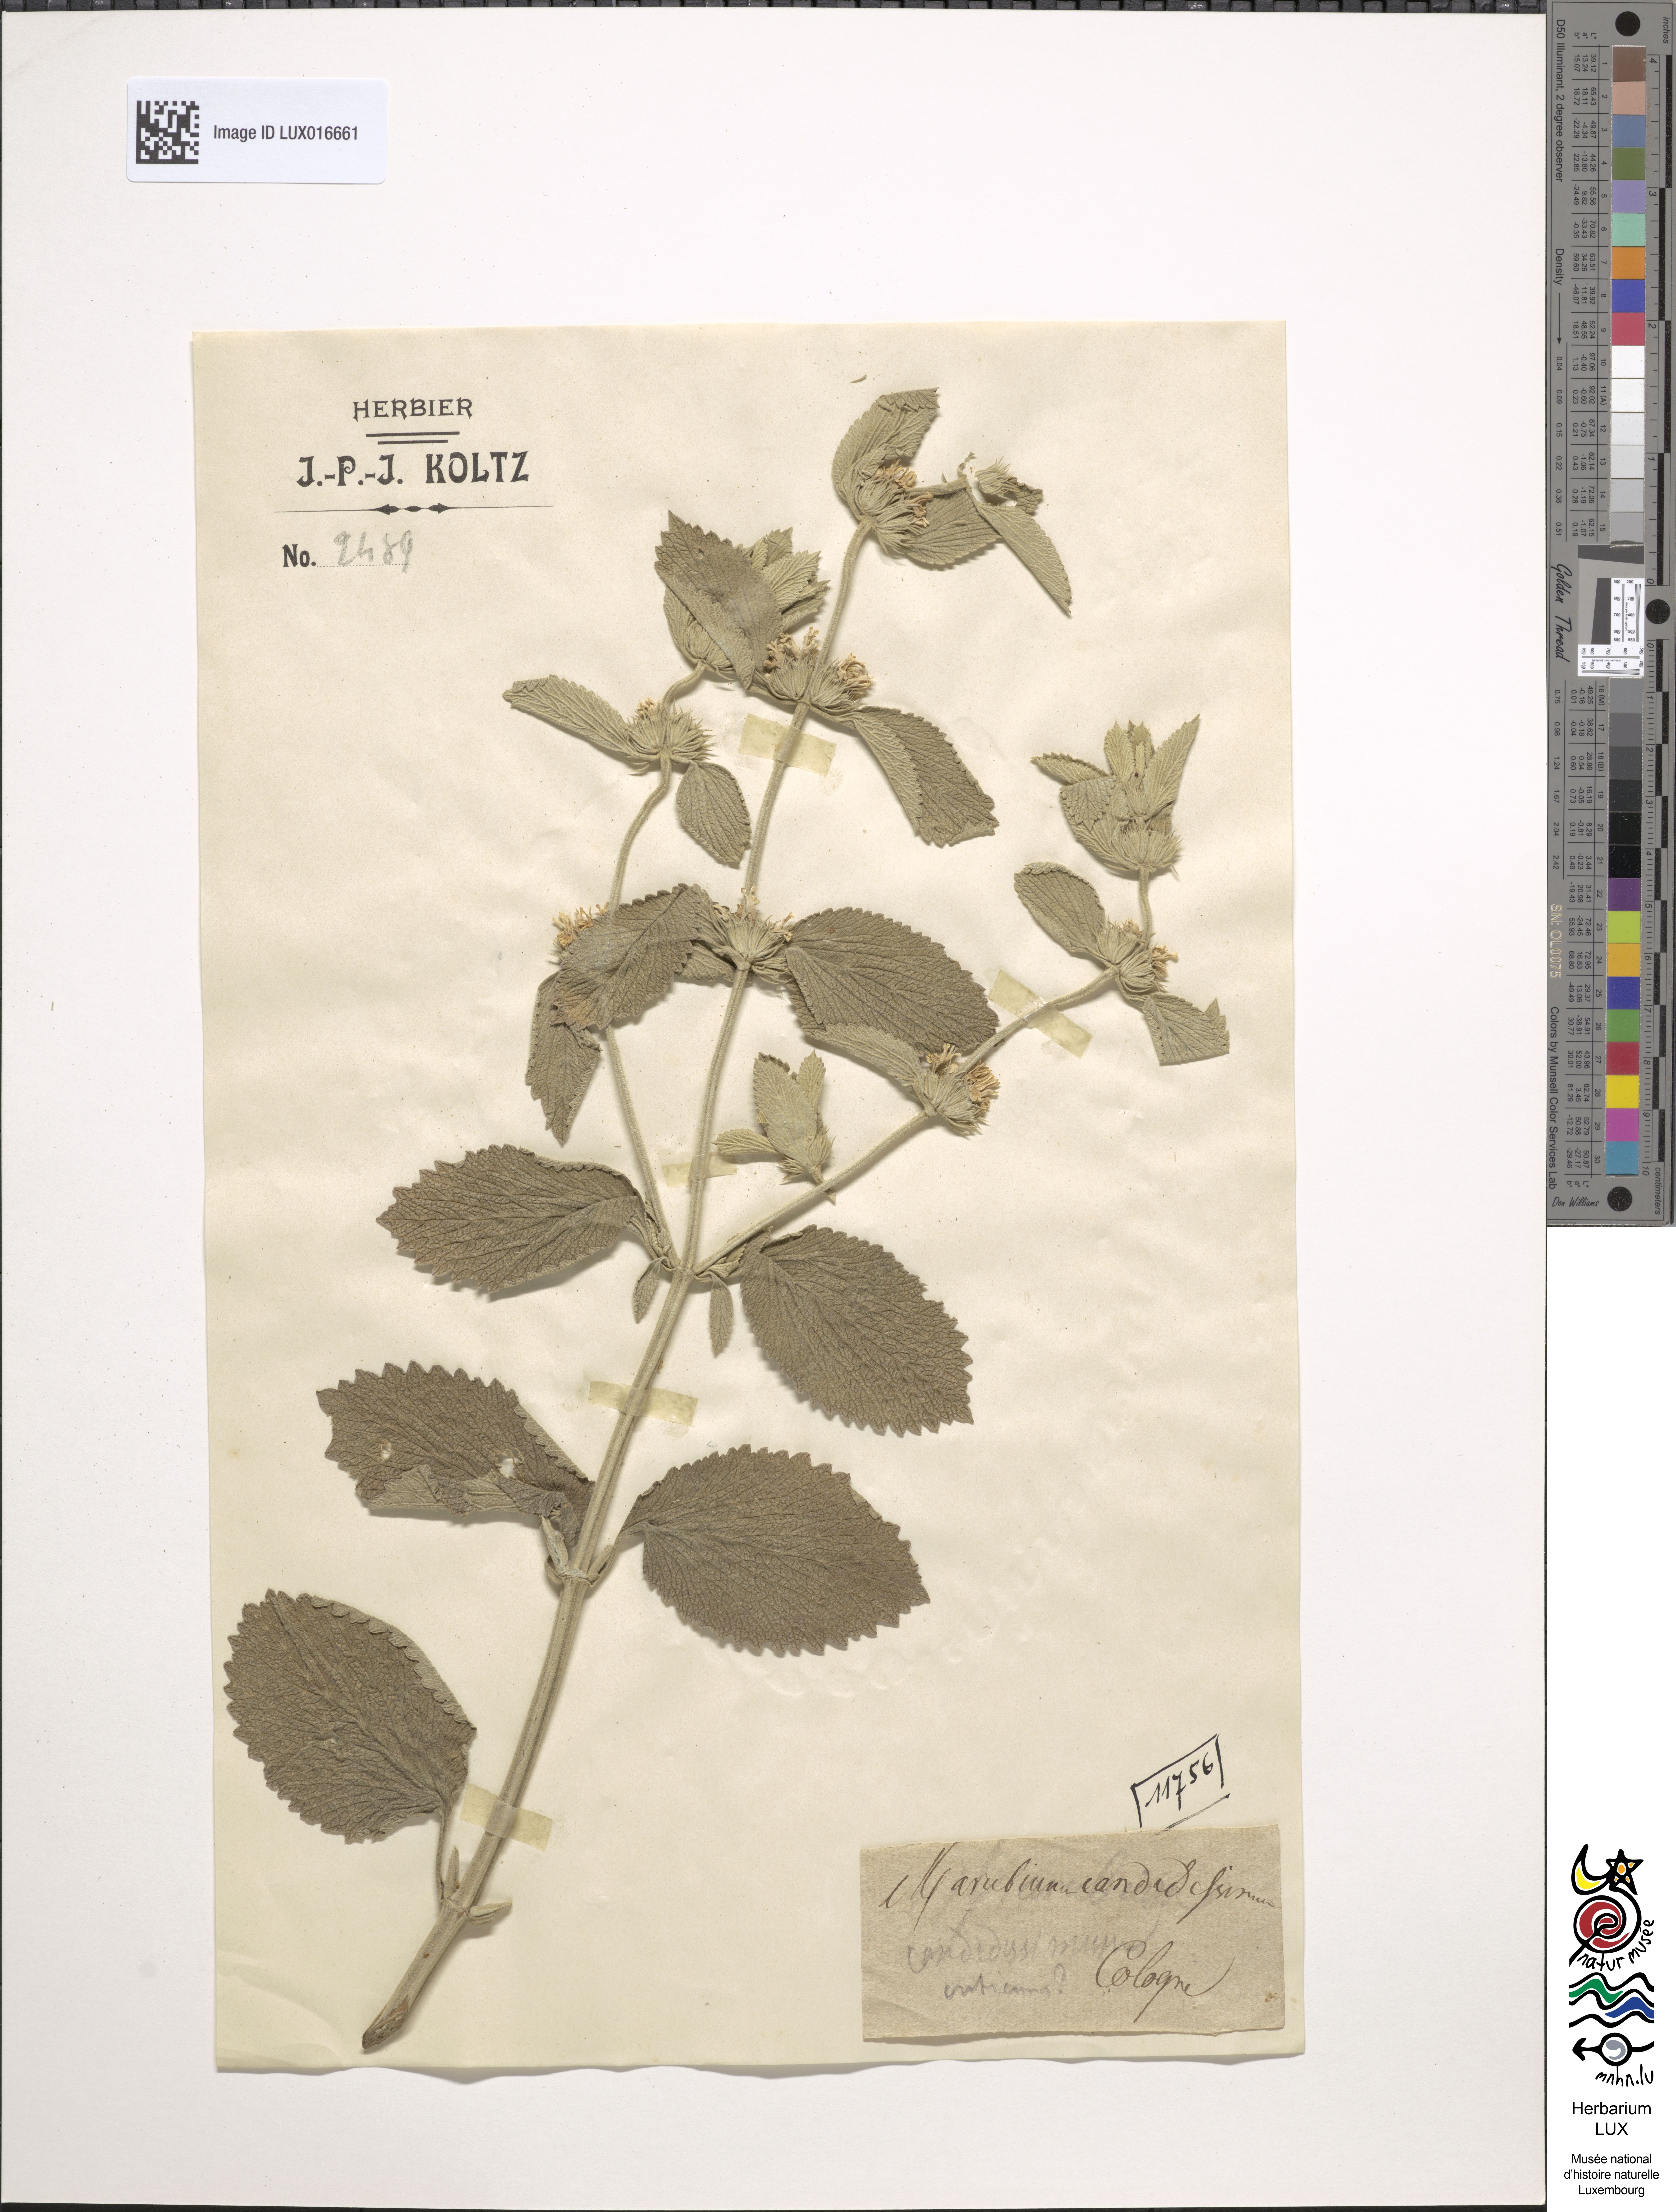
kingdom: Plantae
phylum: Tracheophyta
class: Magnoliopsida
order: Lamiales
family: Lamiaceae
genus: Marrubium
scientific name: Marrubium incanum
